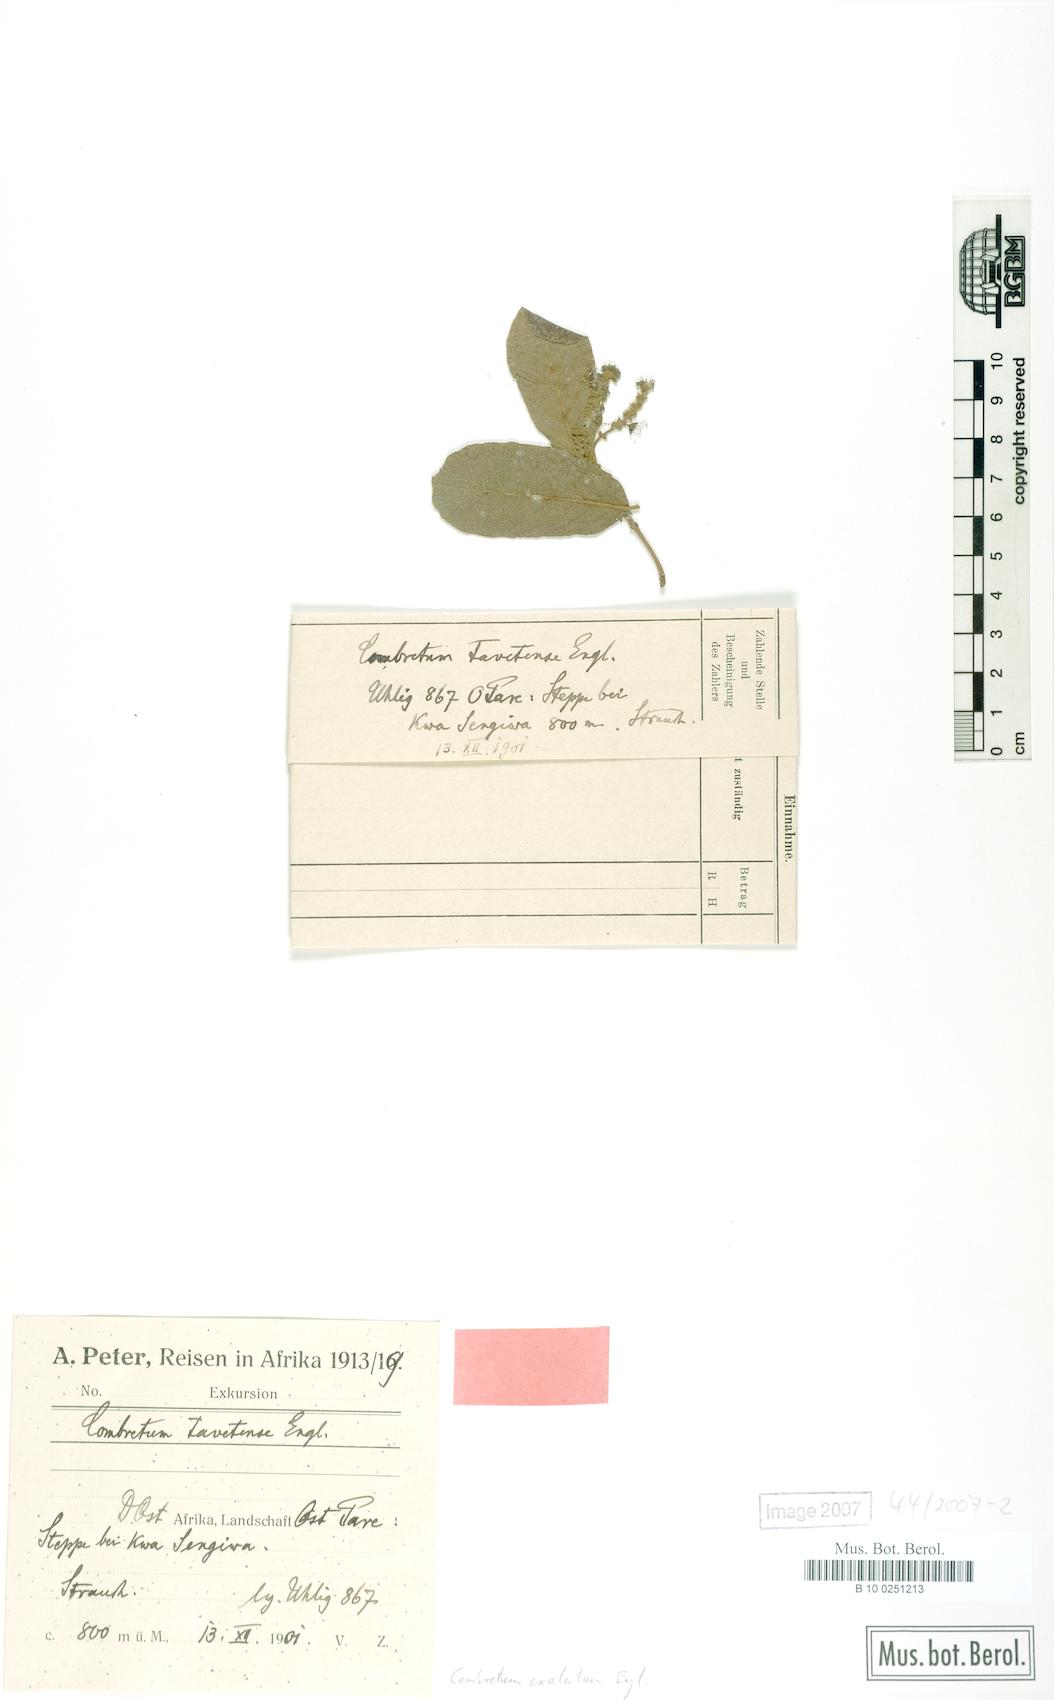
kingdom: Plantae
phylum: Tracheophyta
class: Magnoliopsida
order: Myrtales
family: Combretaceae
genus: Combretum
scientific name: Combretum exalatum
